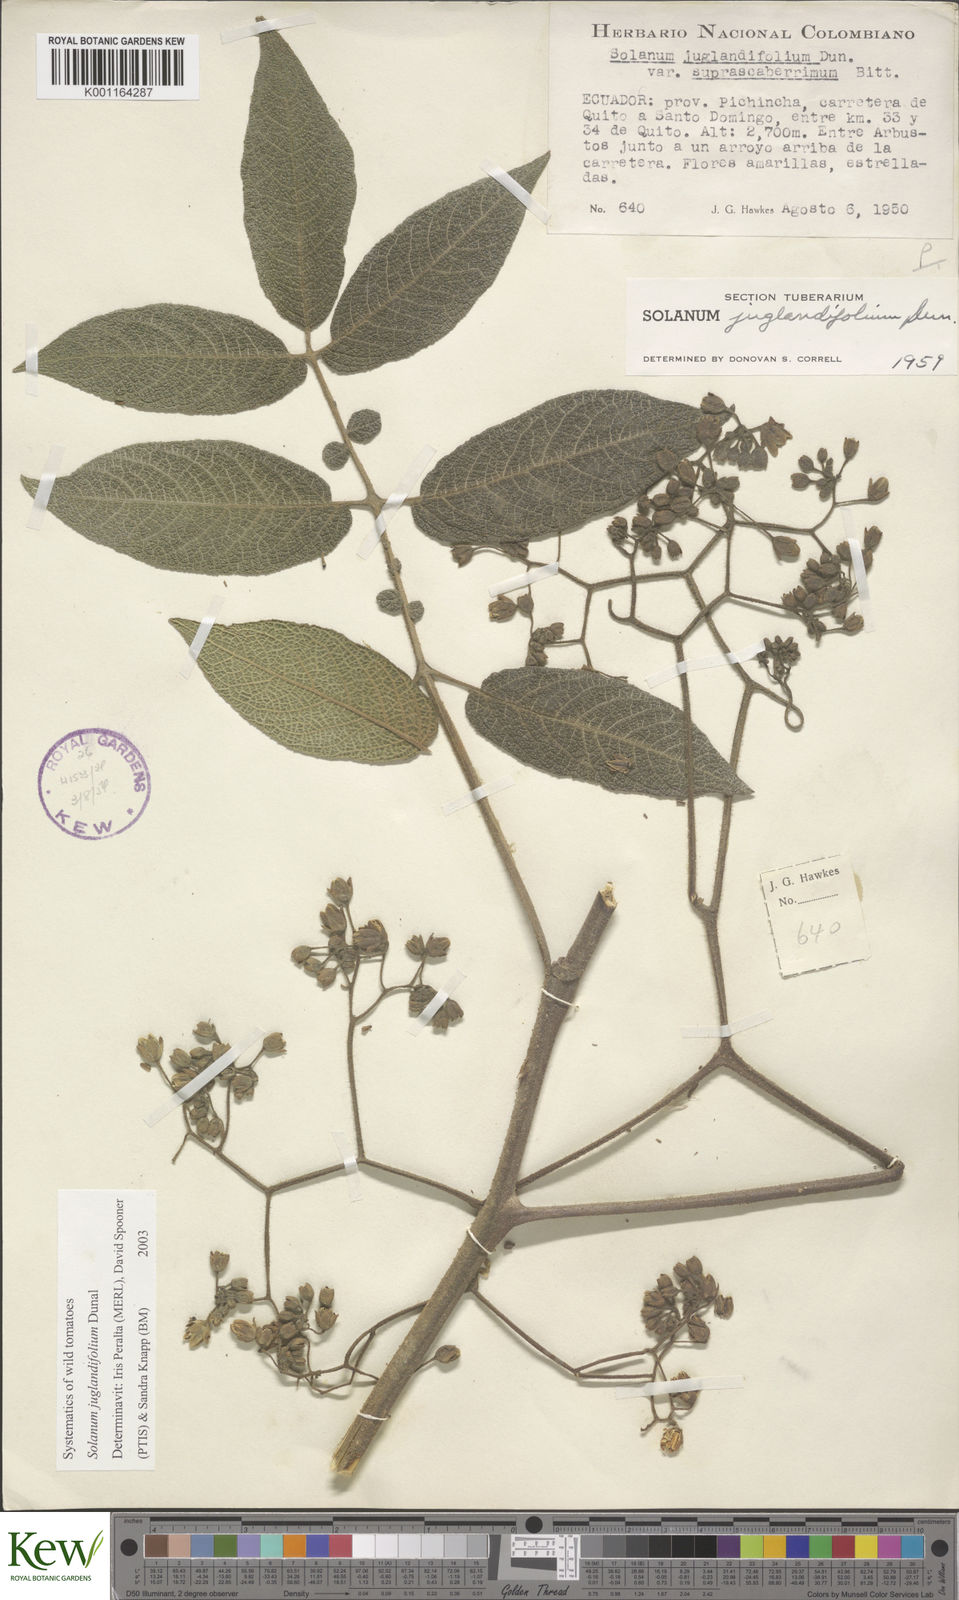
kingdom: Plantae
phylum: Tracheophyta
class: Magnoliopsida
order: Solanales
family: Solanaceae
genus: Solanum
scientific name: Solanum juglandifolium
